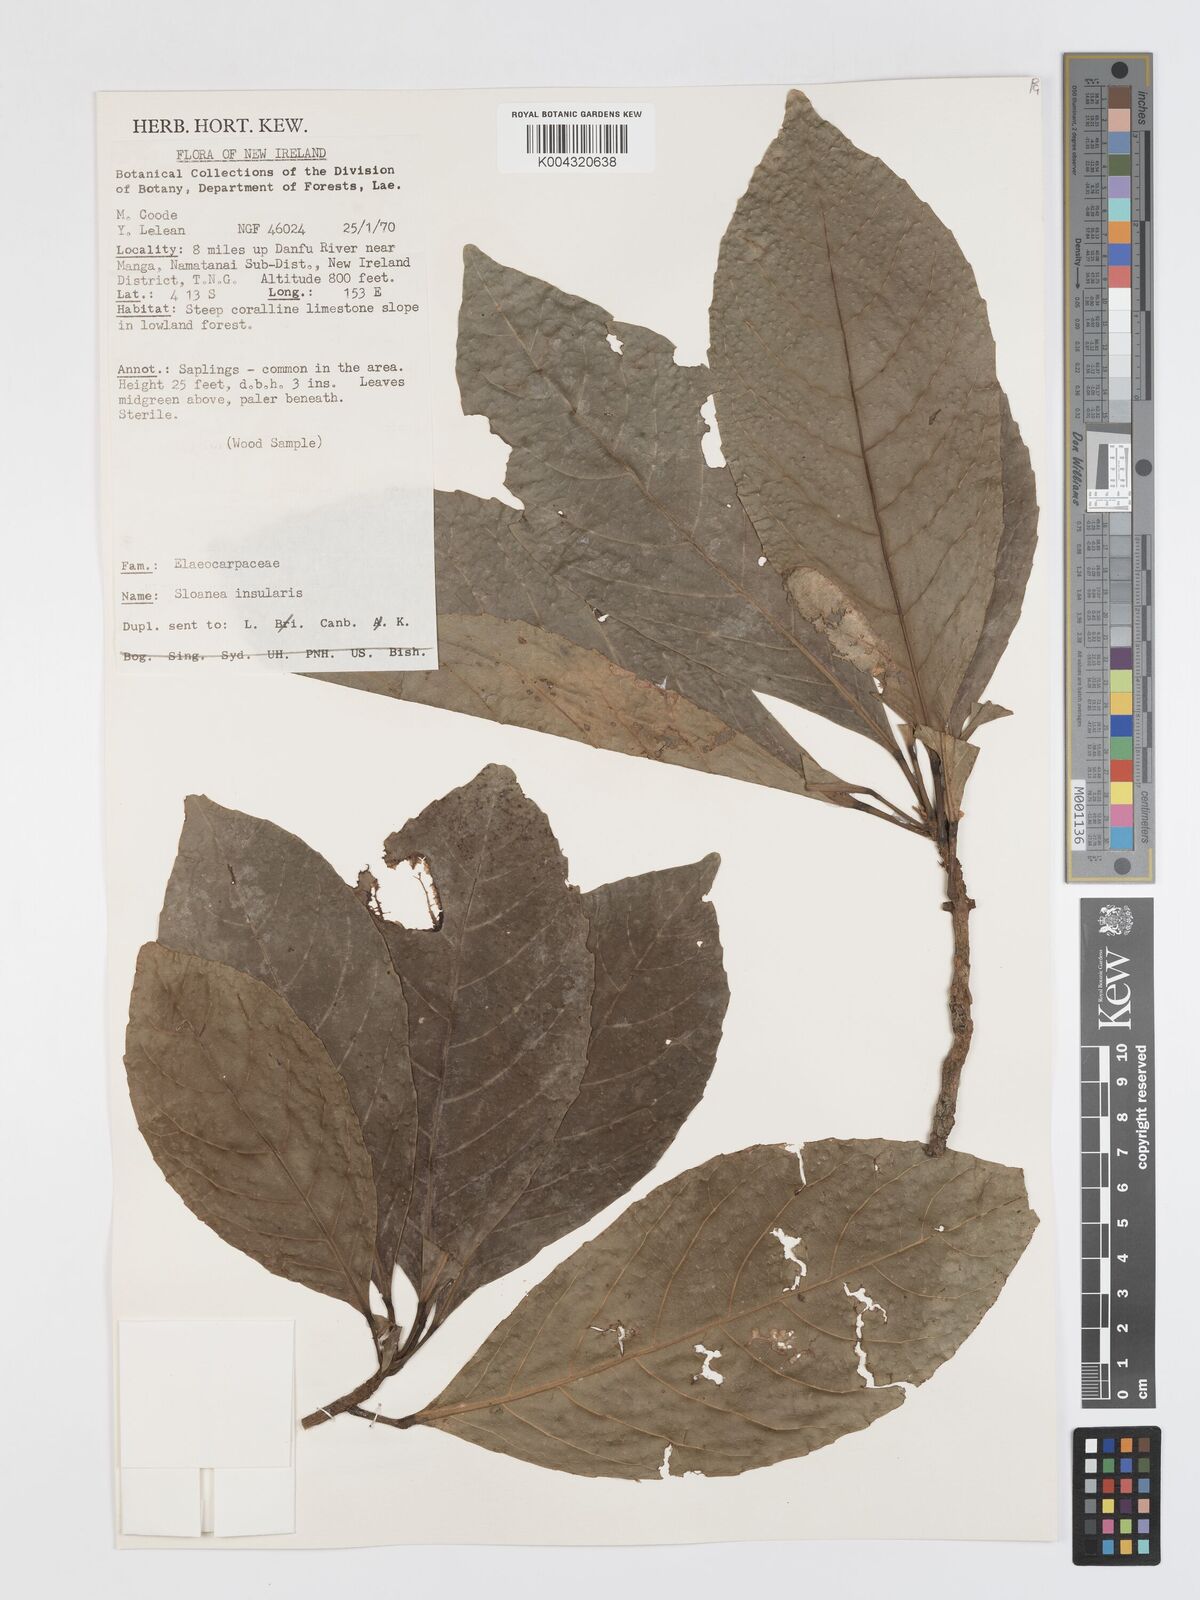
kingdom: Plantae
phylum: Tracheophyta
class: Magnoliopsida
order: Oxalidales
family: Elaeocarpaceae
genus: Sloanea
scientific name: Sloanea insularis
